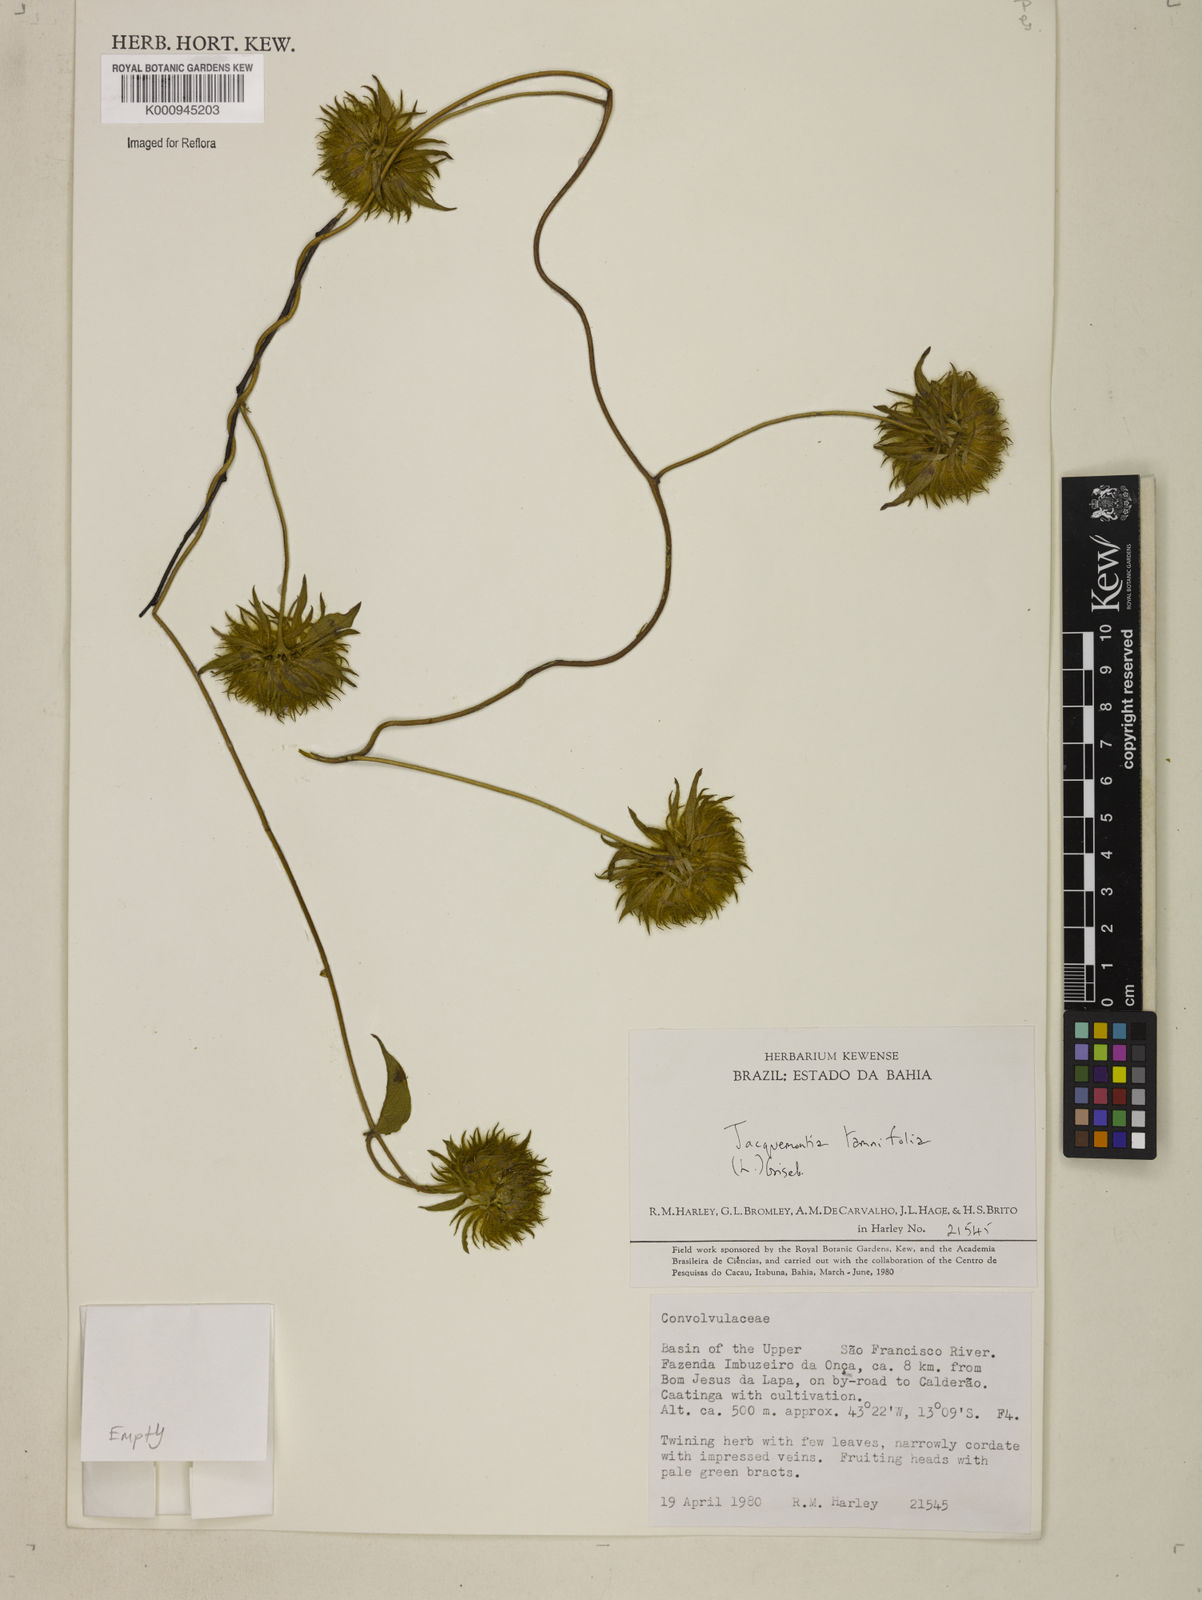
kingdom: Plantae
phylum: Tracheophyta
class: Magnoliopsida
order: Solanales
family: Convolvulaceae
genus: Jacquemontia
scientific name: Jacquemontia tamnifolia
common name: Hairy clustervine
